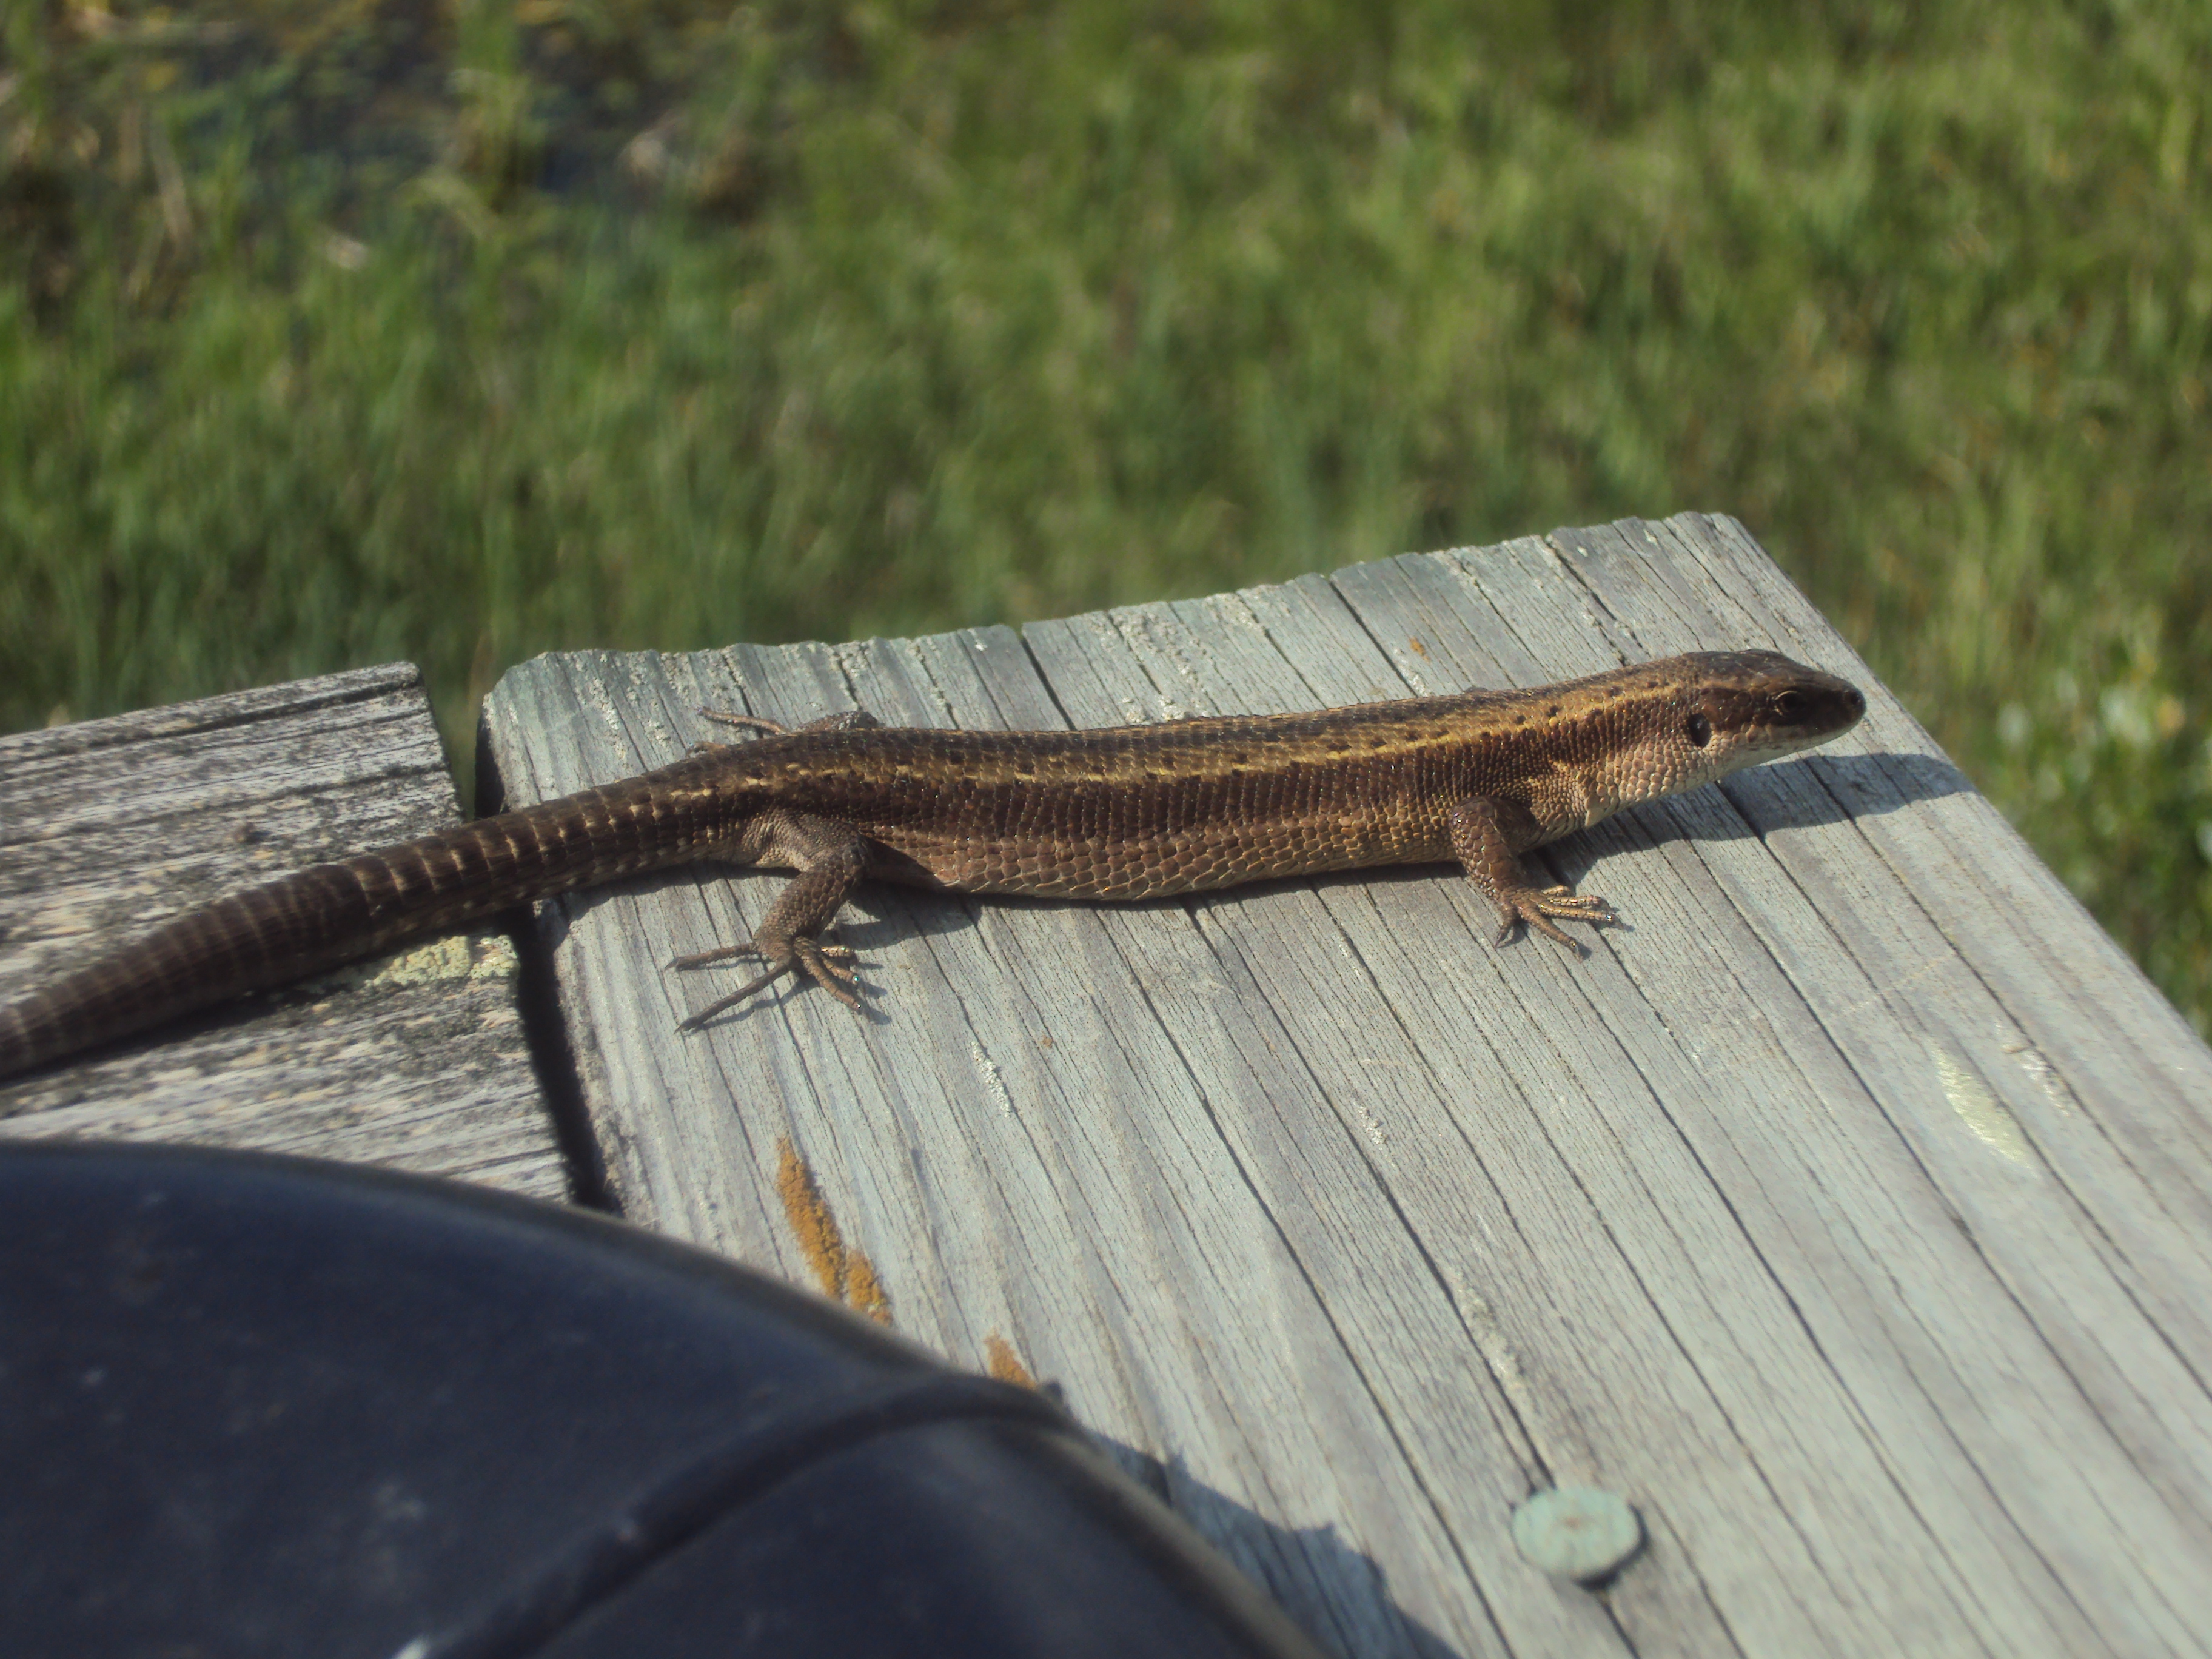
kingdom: Animalia
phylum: Chordata
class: Squamata
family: Lacertidae
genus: Zootoca
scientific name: Zootoca vivipara
